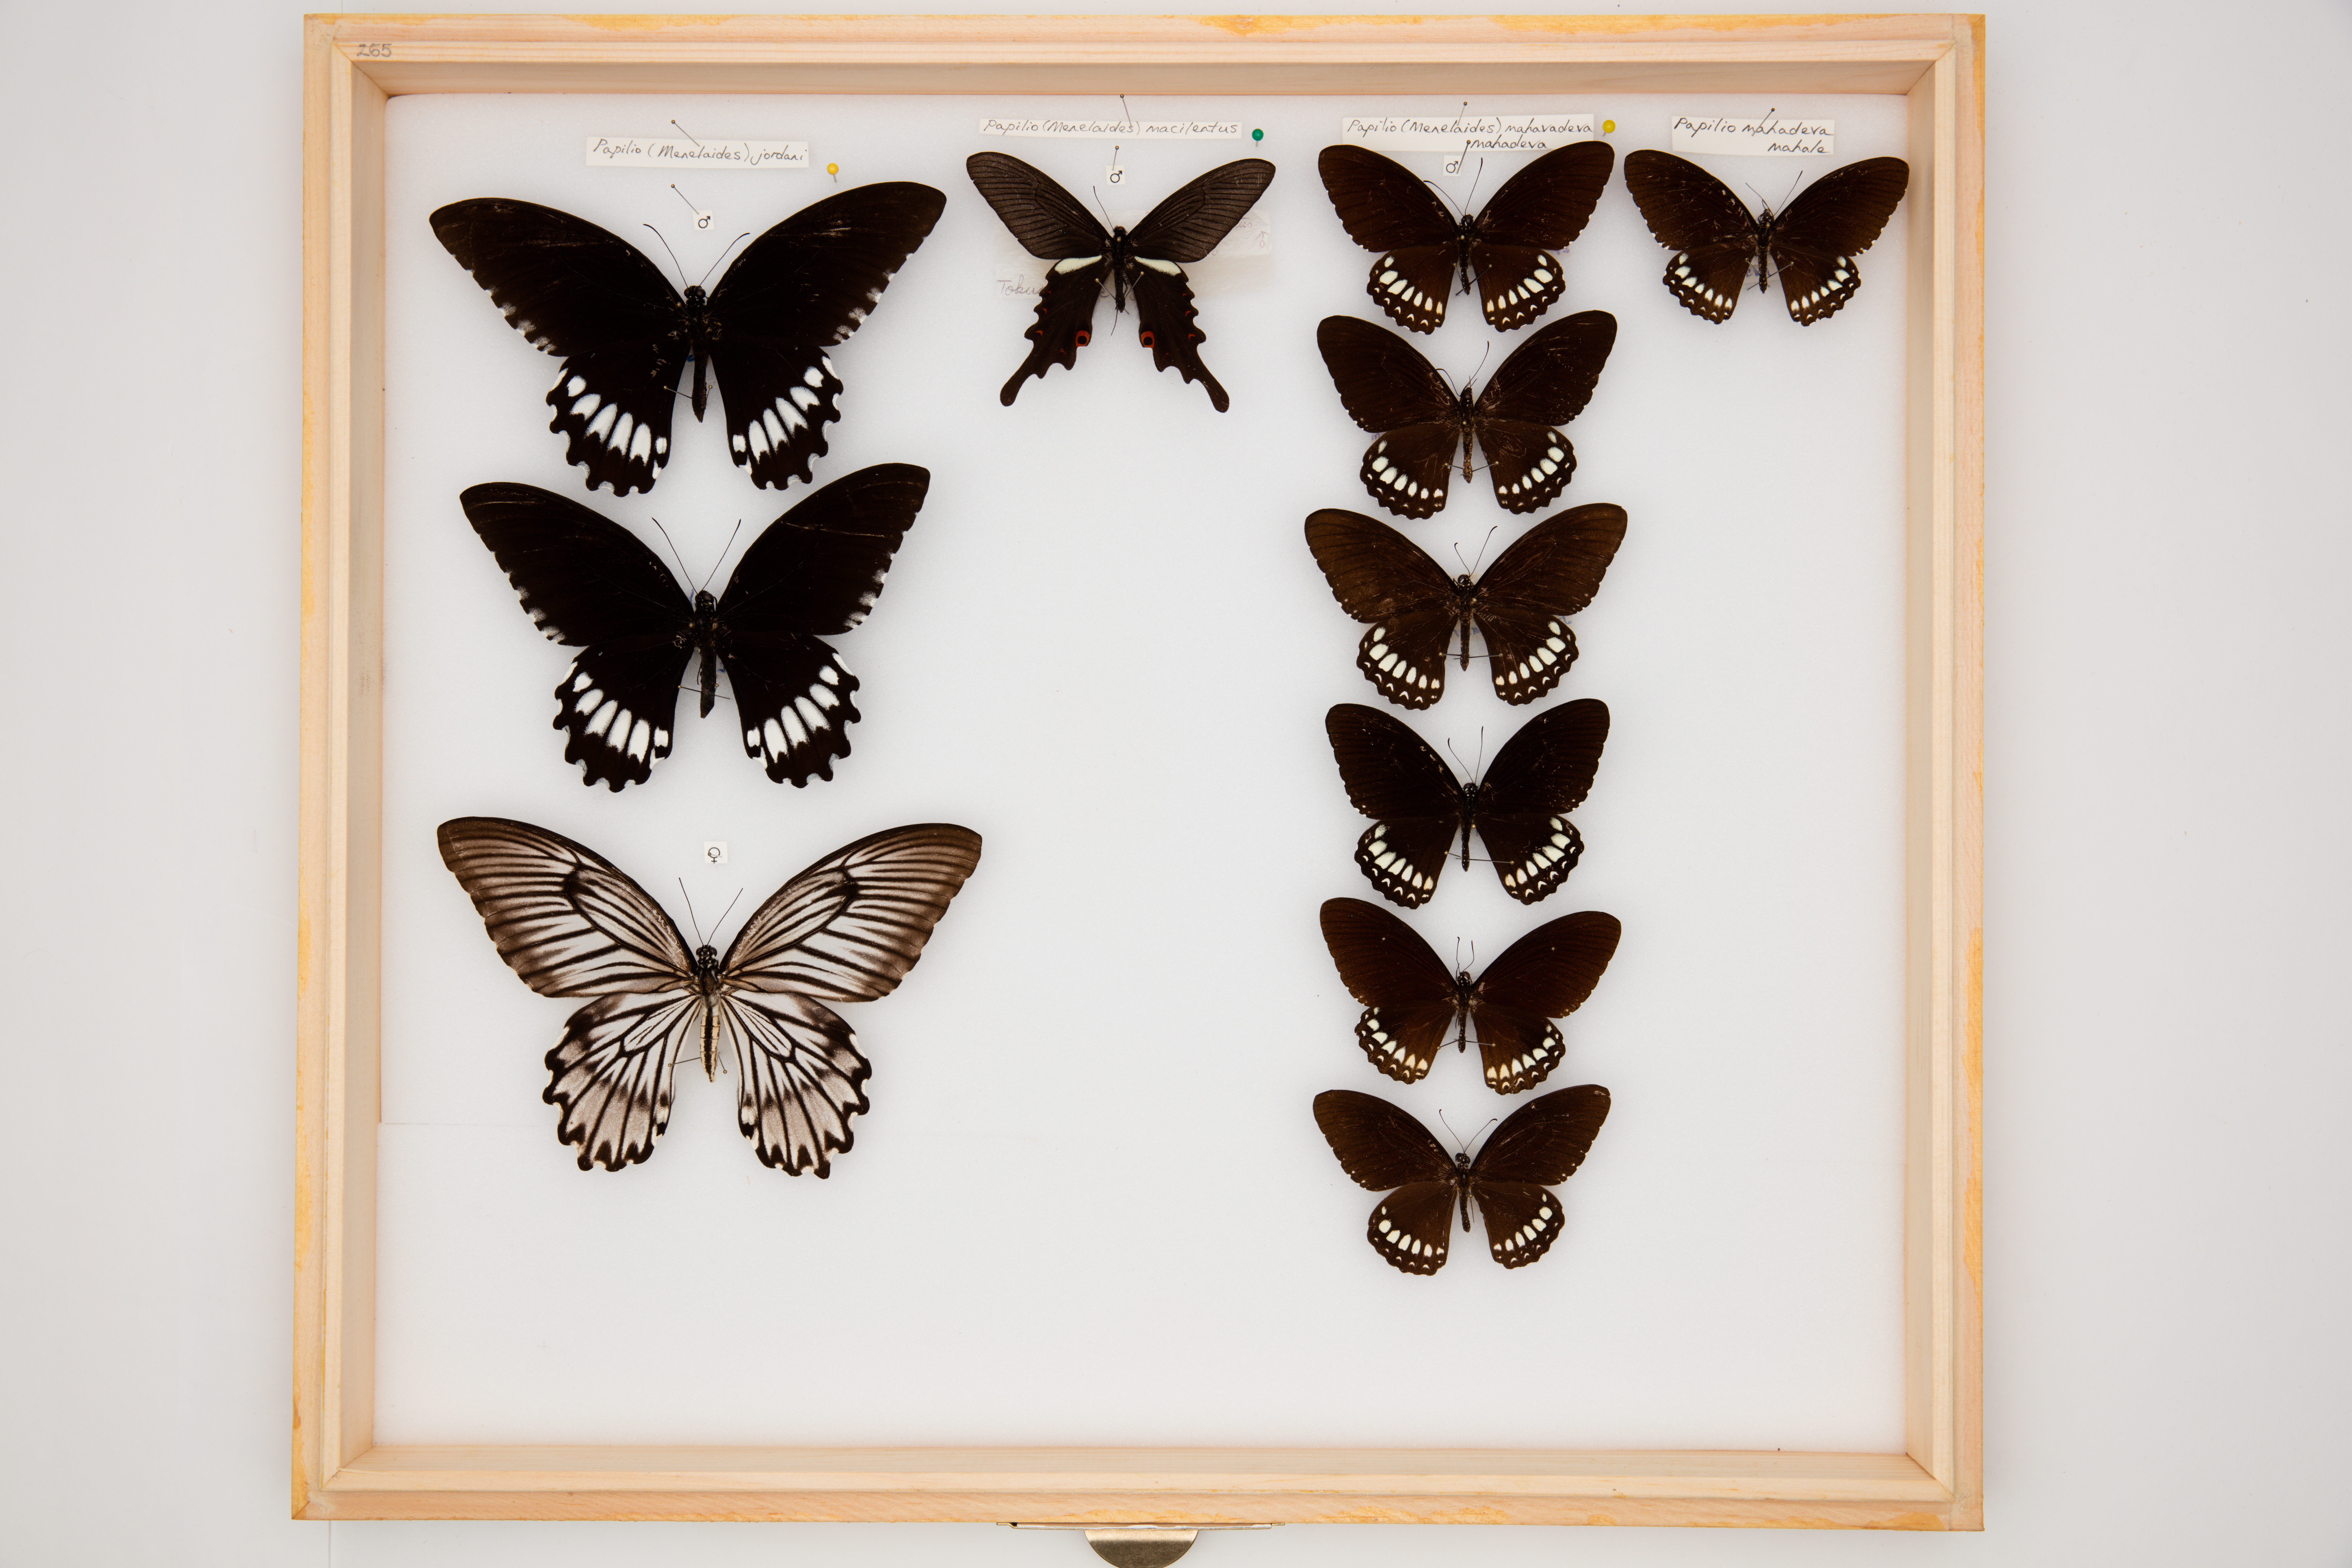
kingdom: Animalia
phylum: Arthropoda
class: Insecta
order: Lepidoptera
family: Papilionidae
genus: Papilio
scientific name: Papilio mahadeva
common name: Burmese raven
